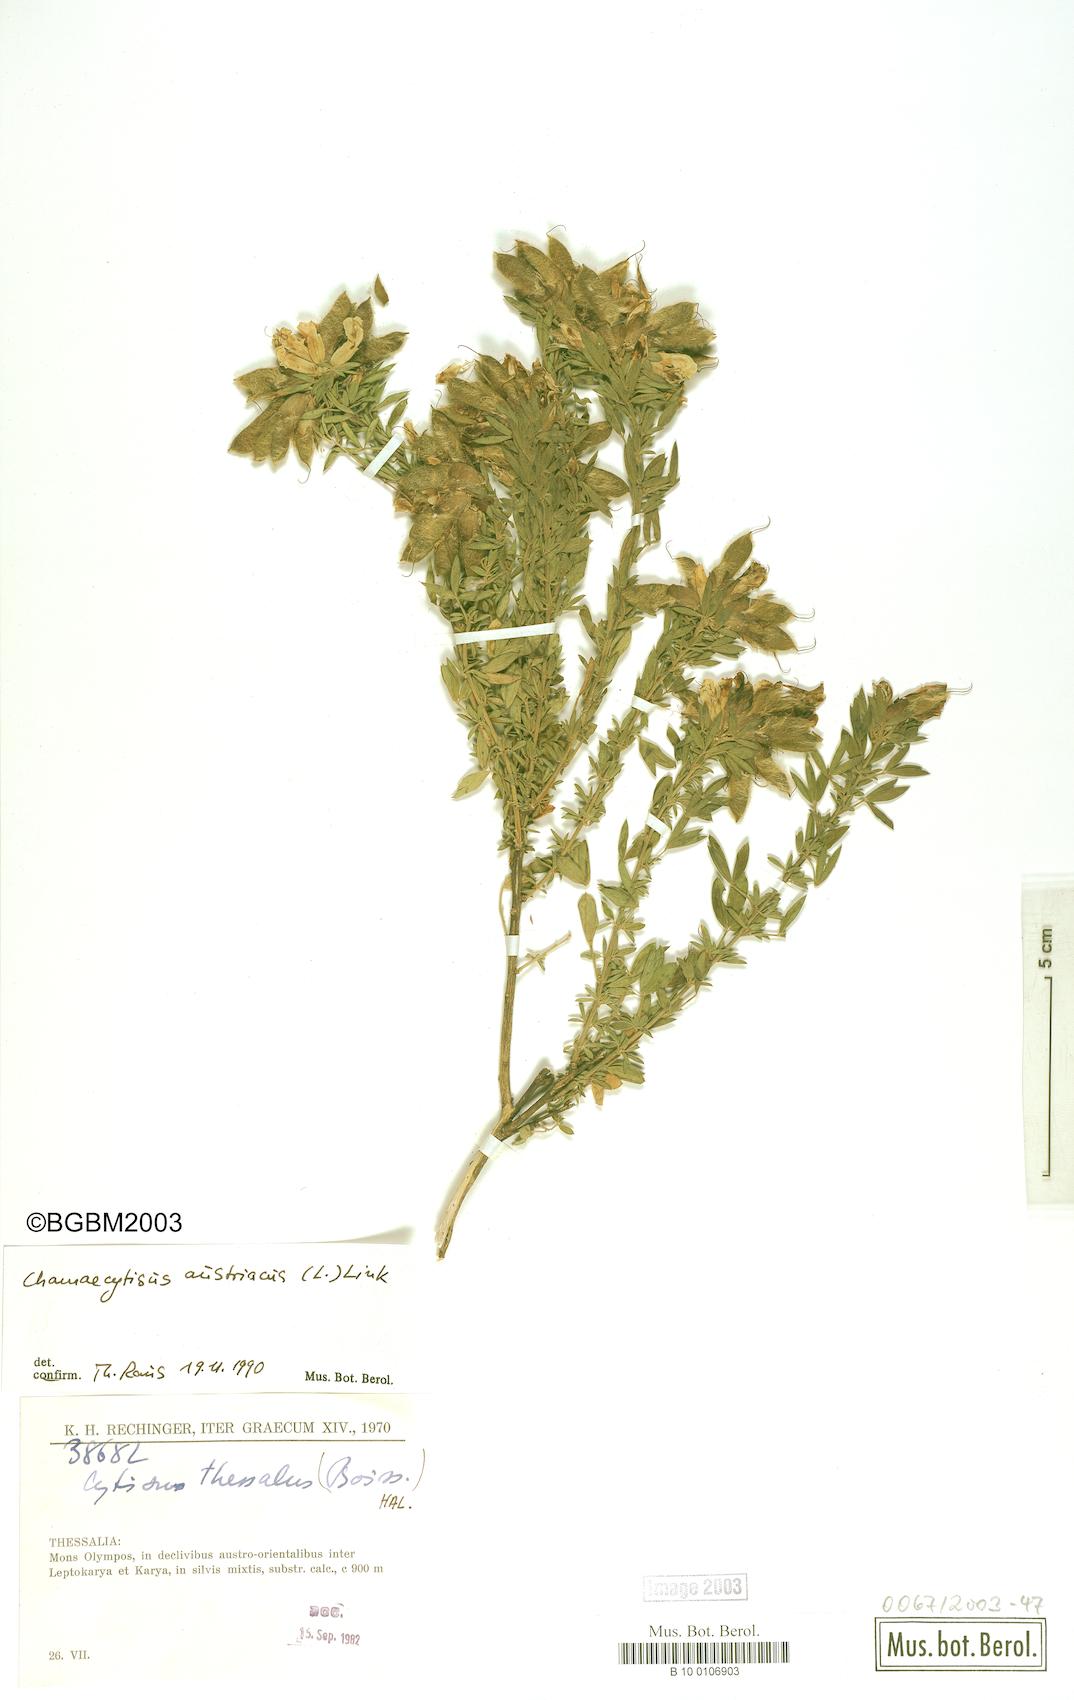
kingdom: Plantae
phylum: Tracheophyta
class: Magnoliopsida
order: Fabales
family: Fabaceae
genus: Chamaecytisus
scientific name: Chamaecytisus austriacus
